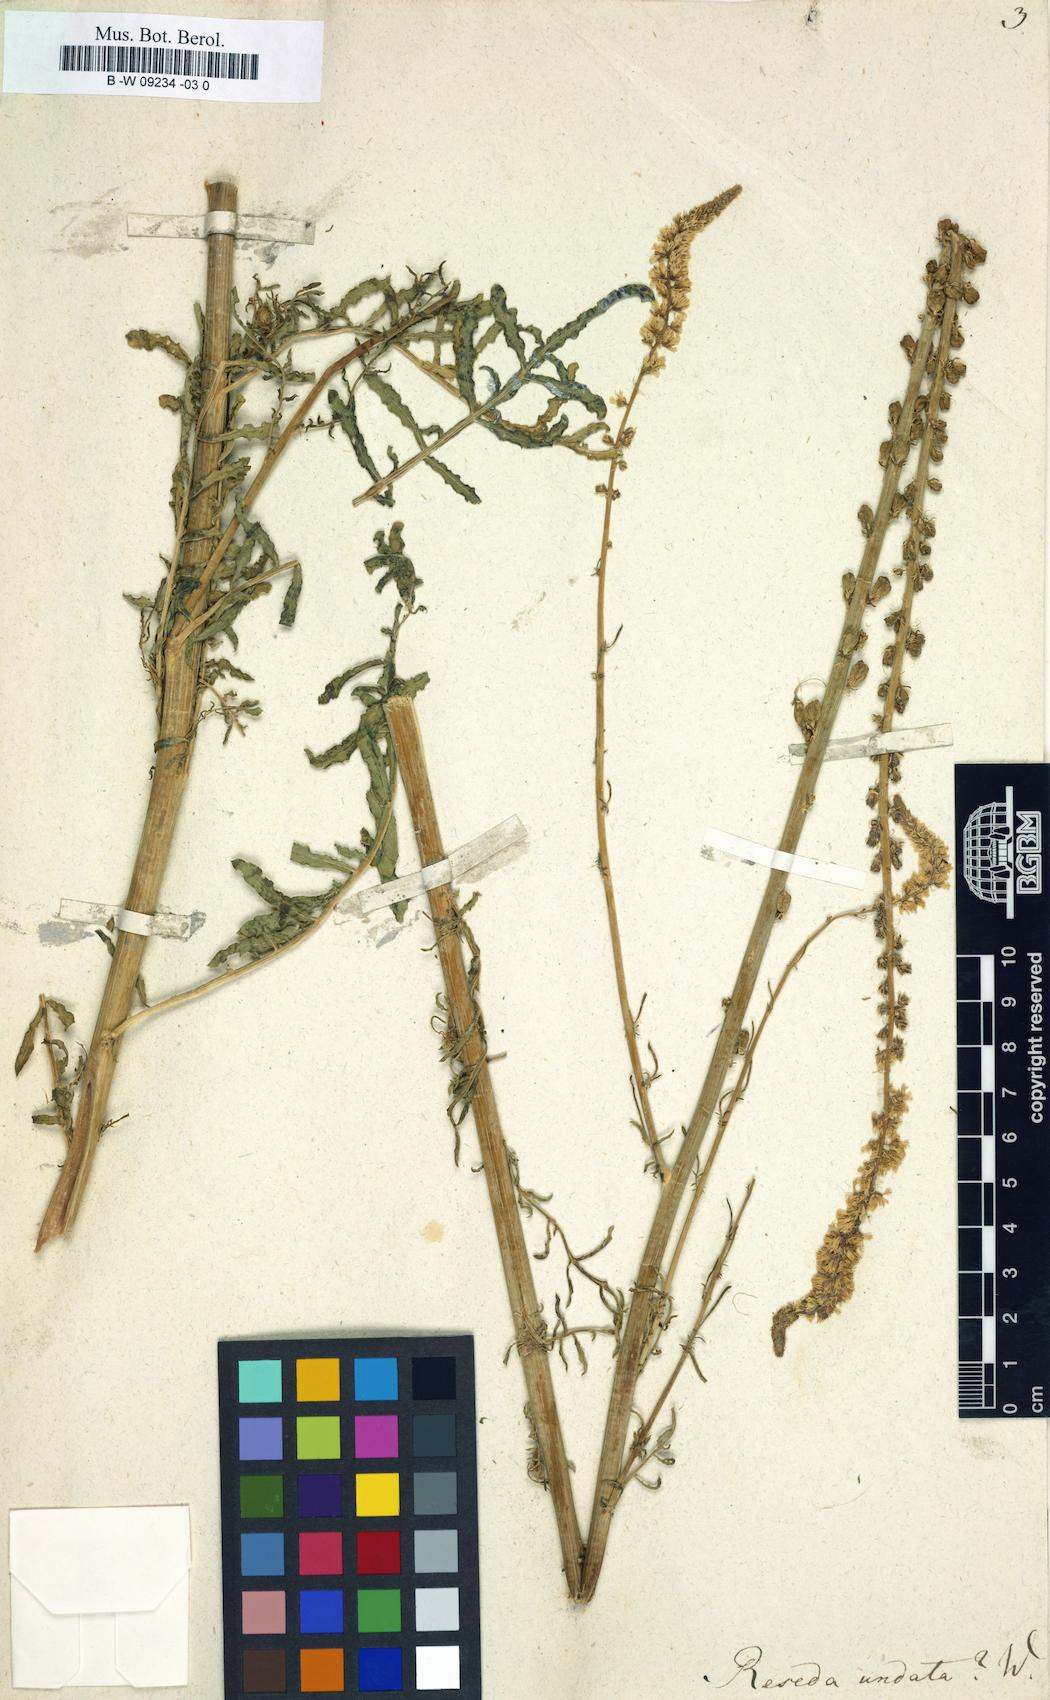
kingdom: Plantae
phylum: Tracheophyta
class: Magnoliopsida
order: Brassicales
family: Resedaceae
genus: Reseda
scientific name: Reseda undata
